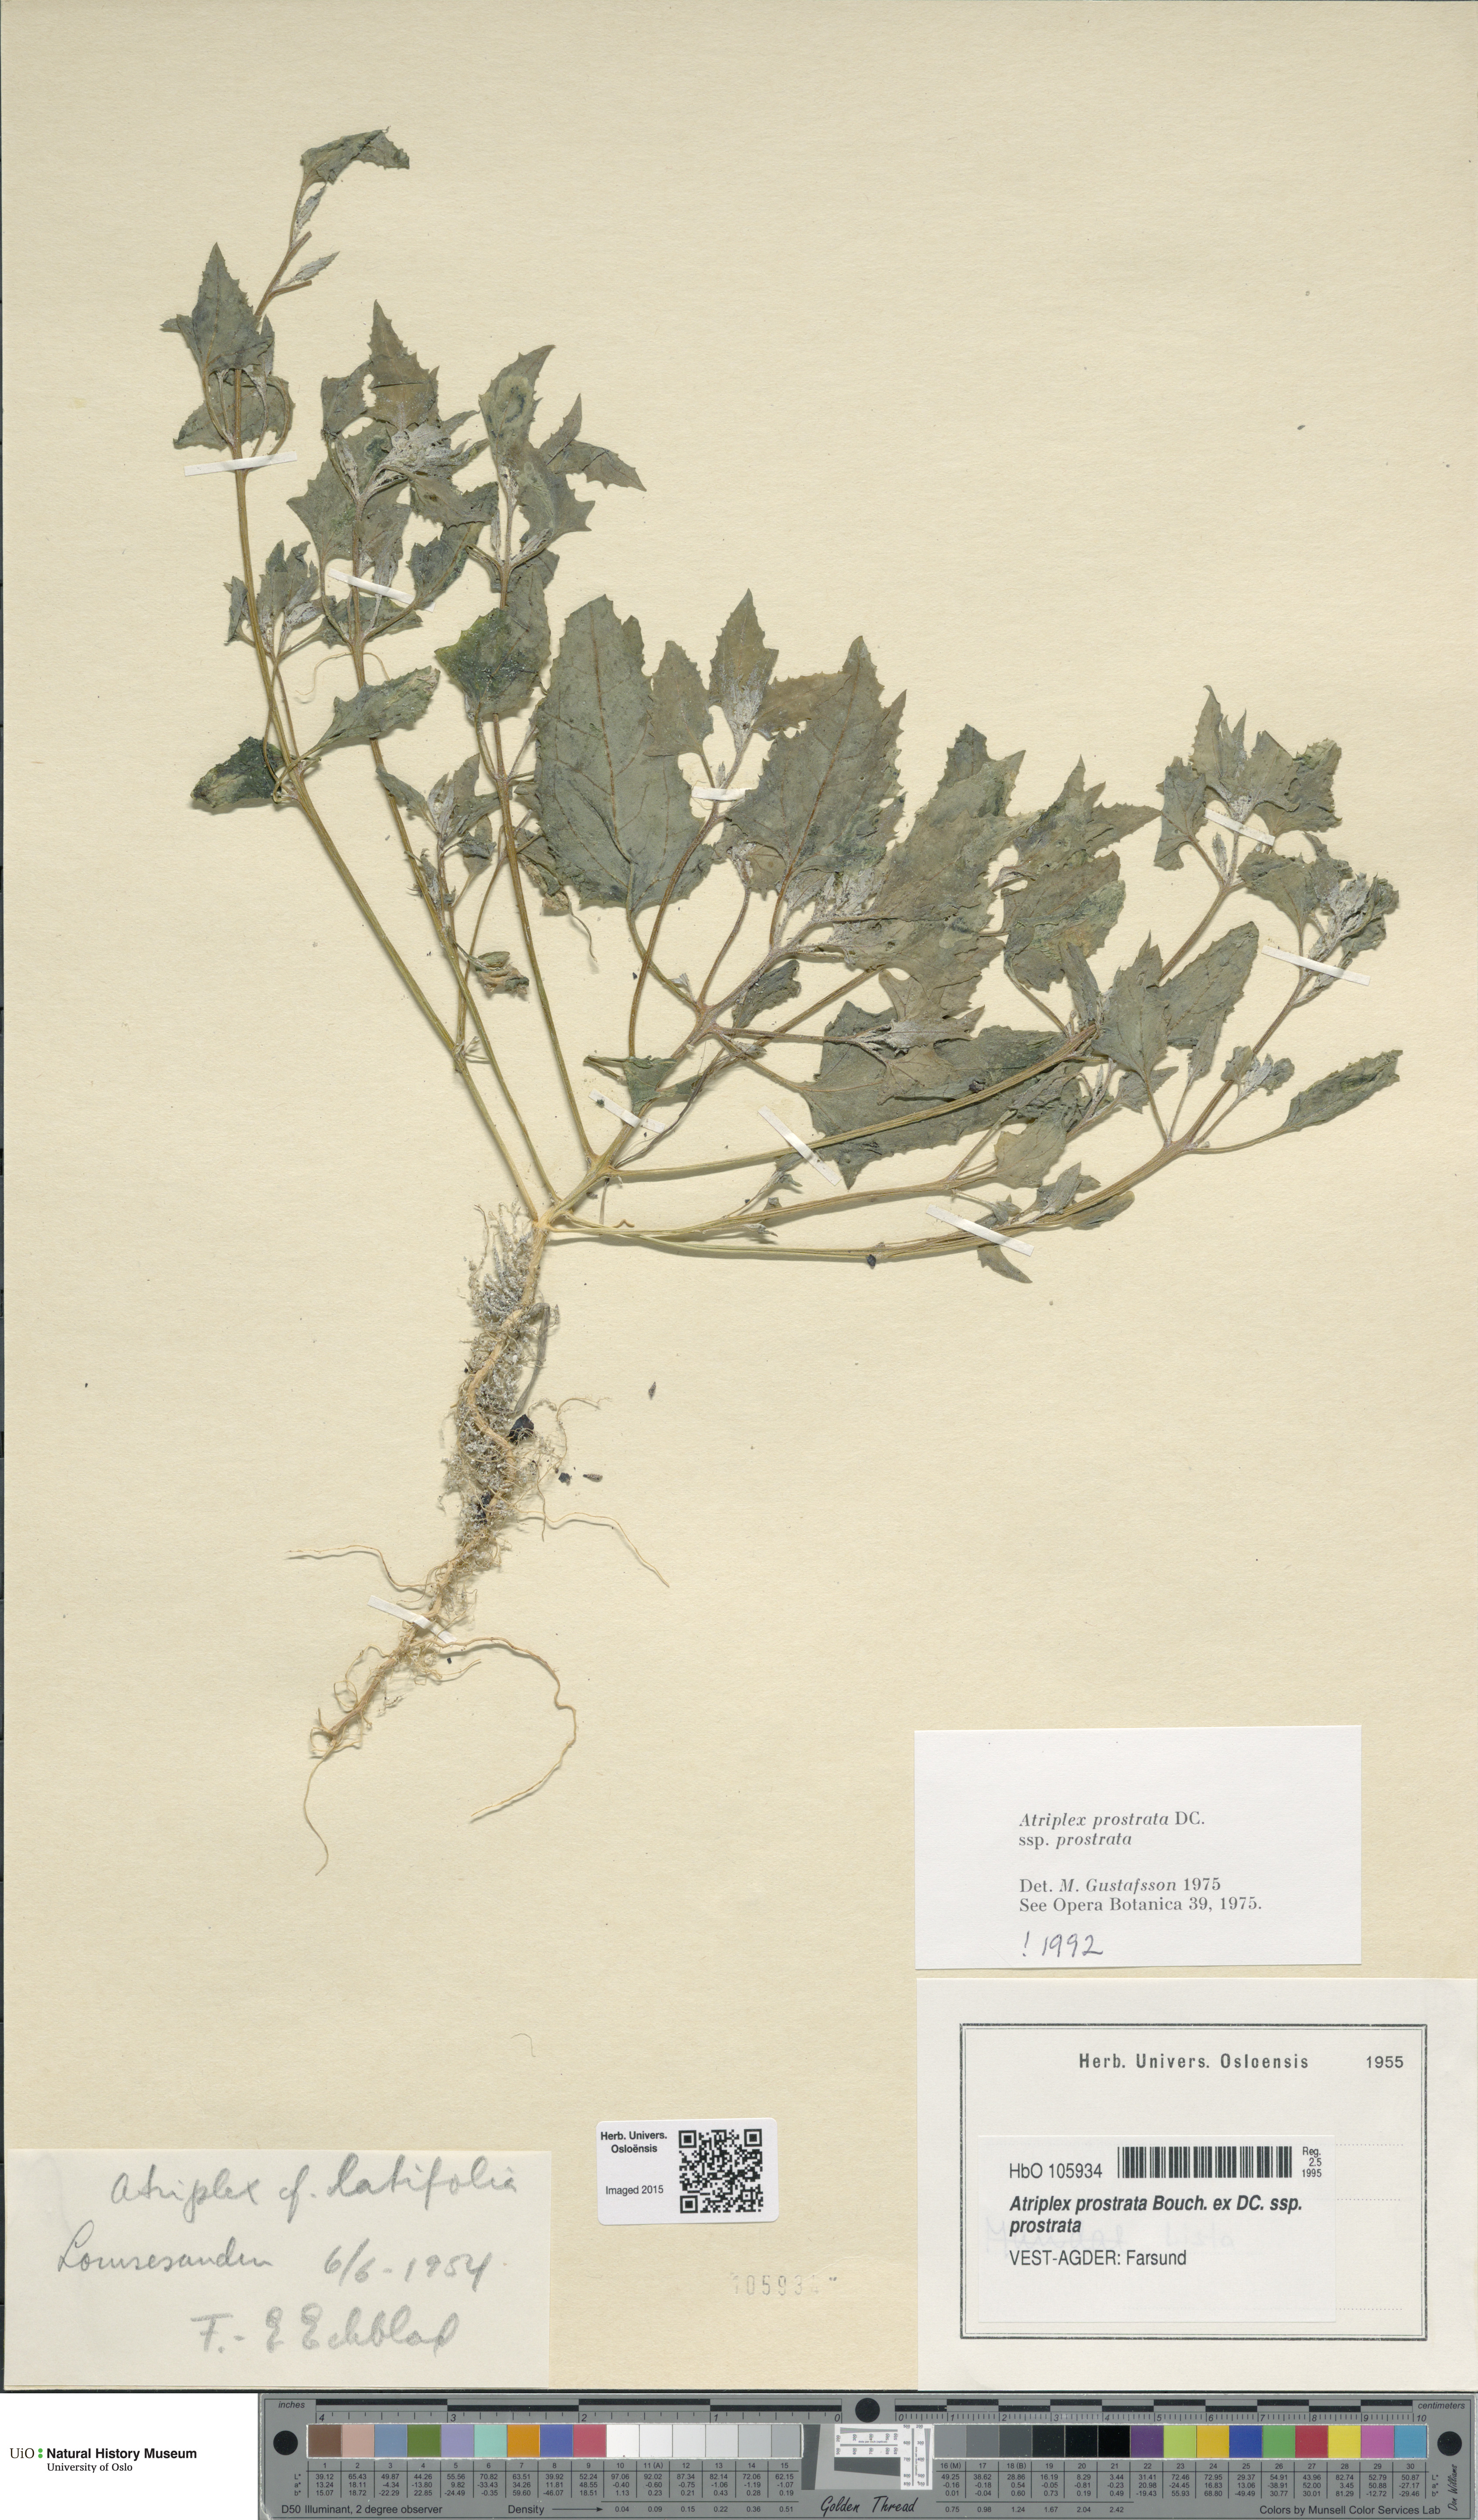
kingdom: Plantae
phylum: Tracheophyta
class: Magnoliopsida
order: Caryophyllales
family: Amaranthaceae
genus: Atriplex
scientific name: Atriplex prostrata
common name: Spear-leaved orache
